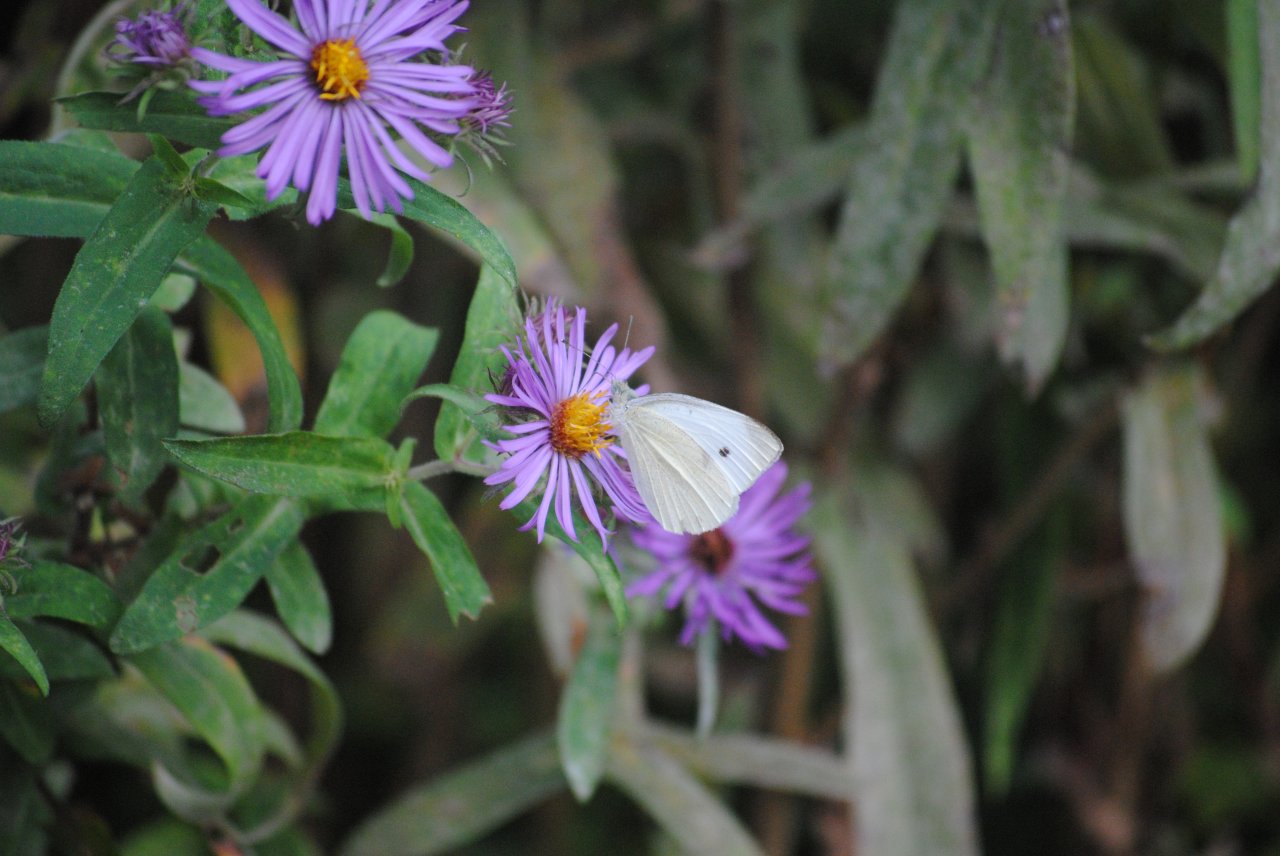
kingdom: Animalia
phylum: Arthropoda
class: Insecta
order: Lepidoptera
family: Pieridae
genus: Pieris
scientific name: Pieris rapae
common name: Cabbage White
